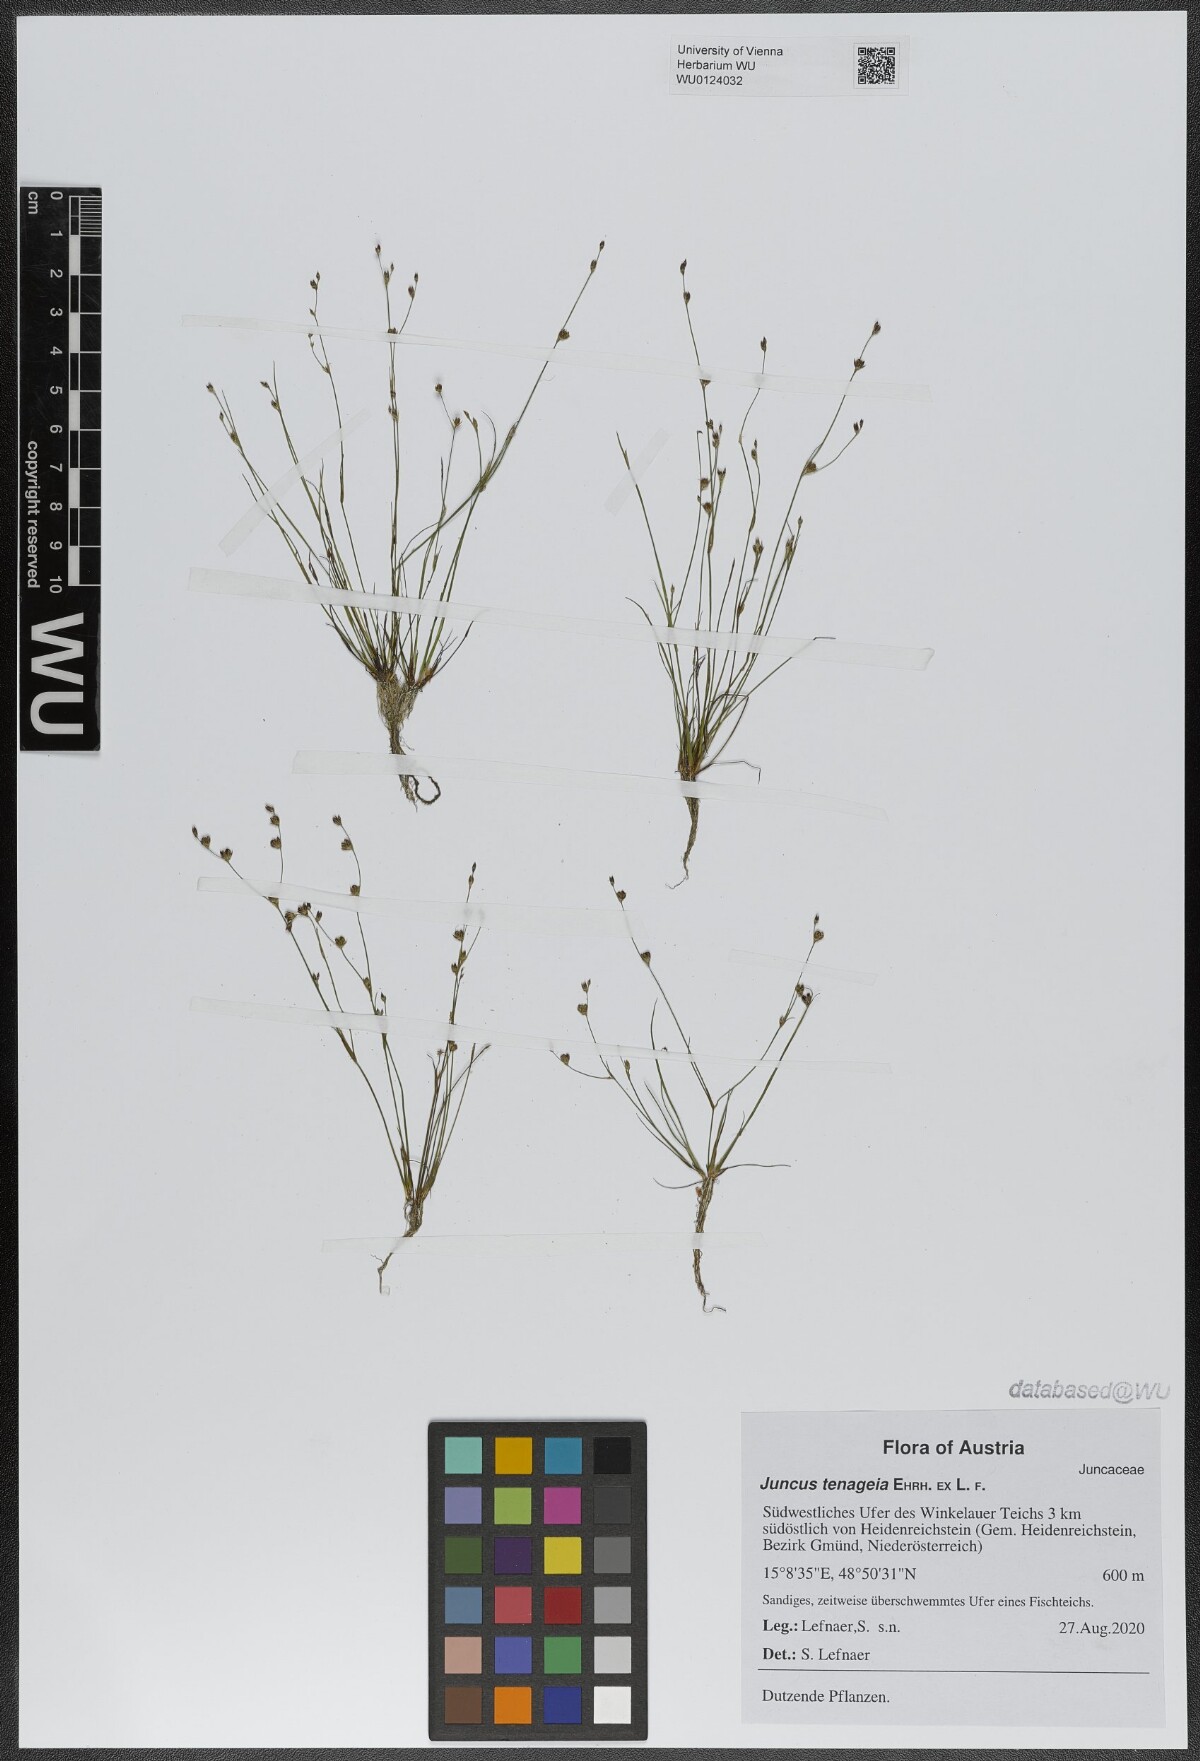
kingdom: Plantae
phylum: Tracheophyta
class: Liliopsida
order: Poales
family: Juncaceae
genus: Juncus
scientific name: Juncus tenageia
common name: Sand rush
